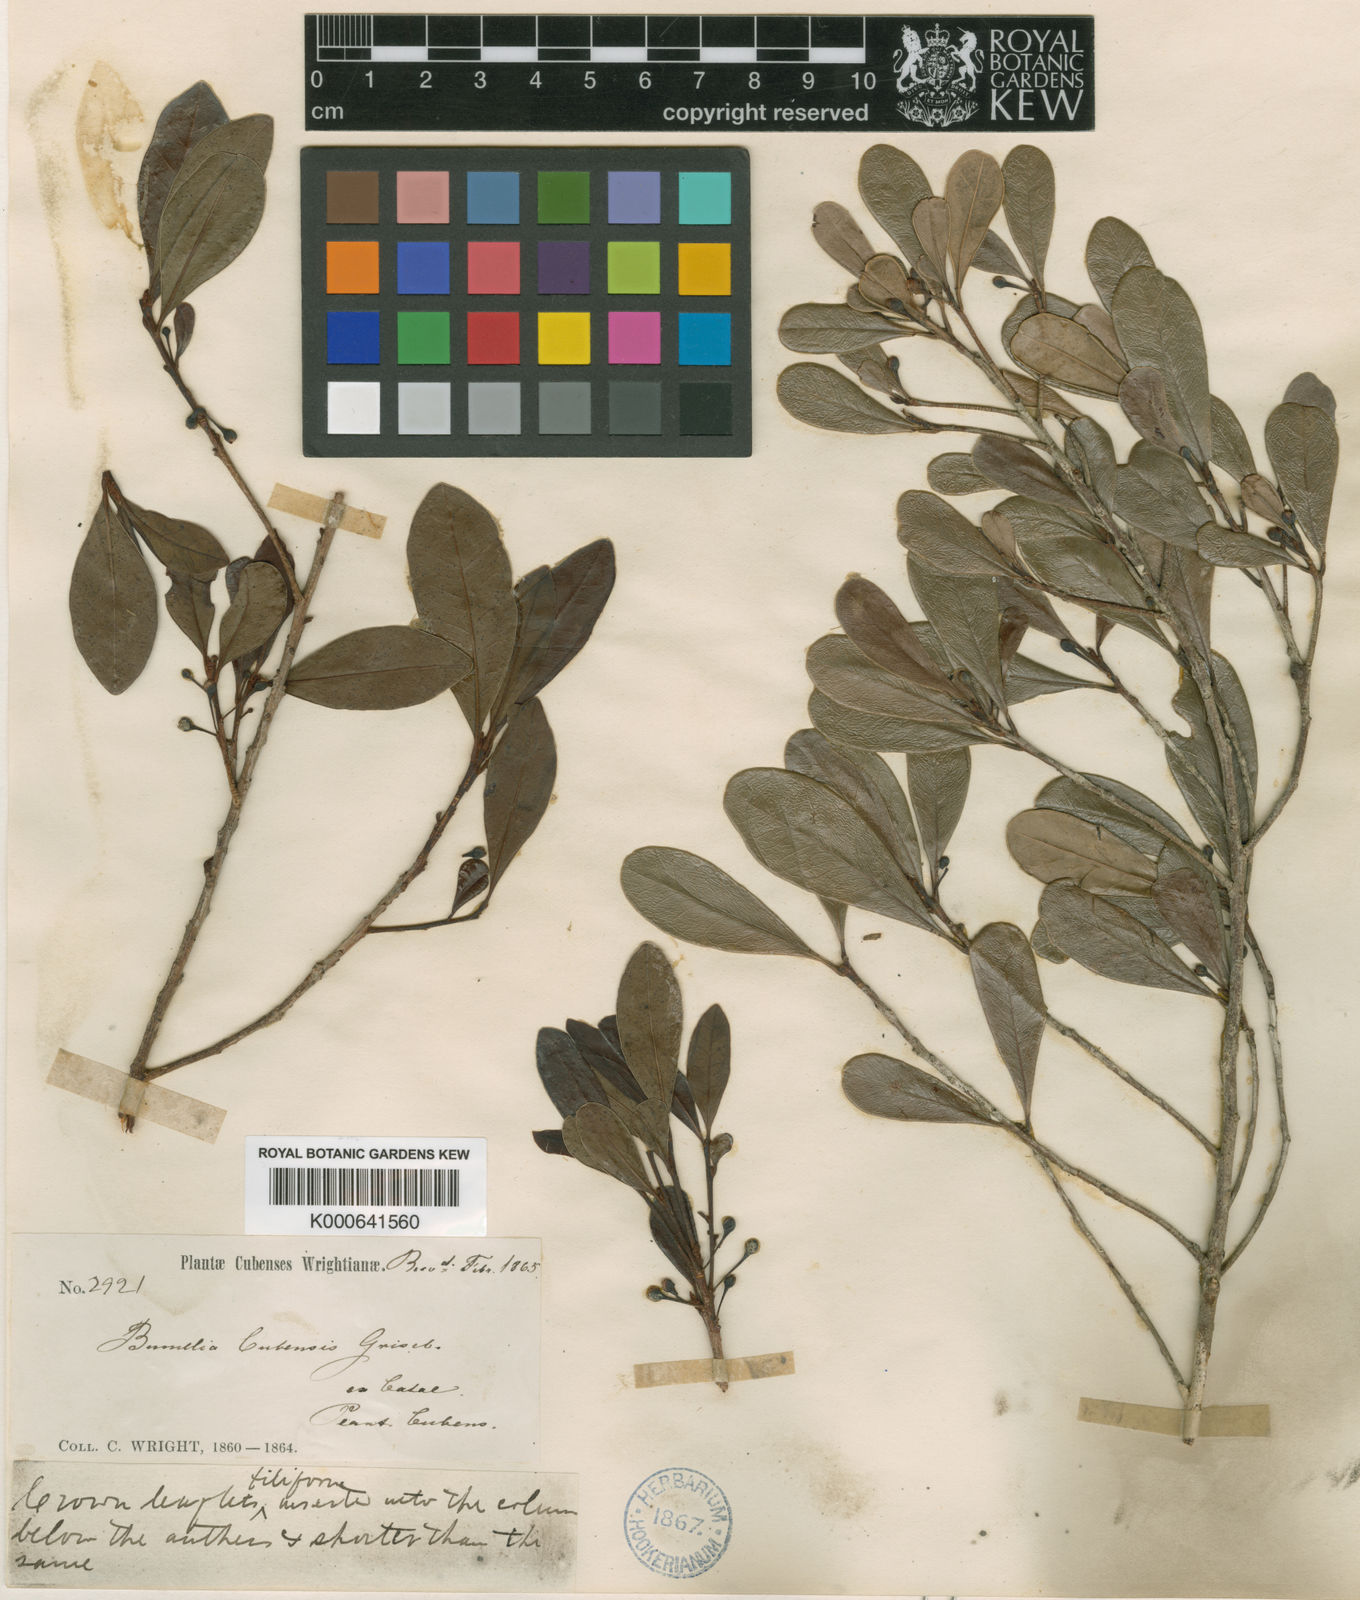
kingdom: Plantae
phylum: Tracheophyta
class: Magnoliopsida
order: Ericales
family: Sapotaceae
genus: Sideroxylon
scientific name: Sideroxylon cubense
